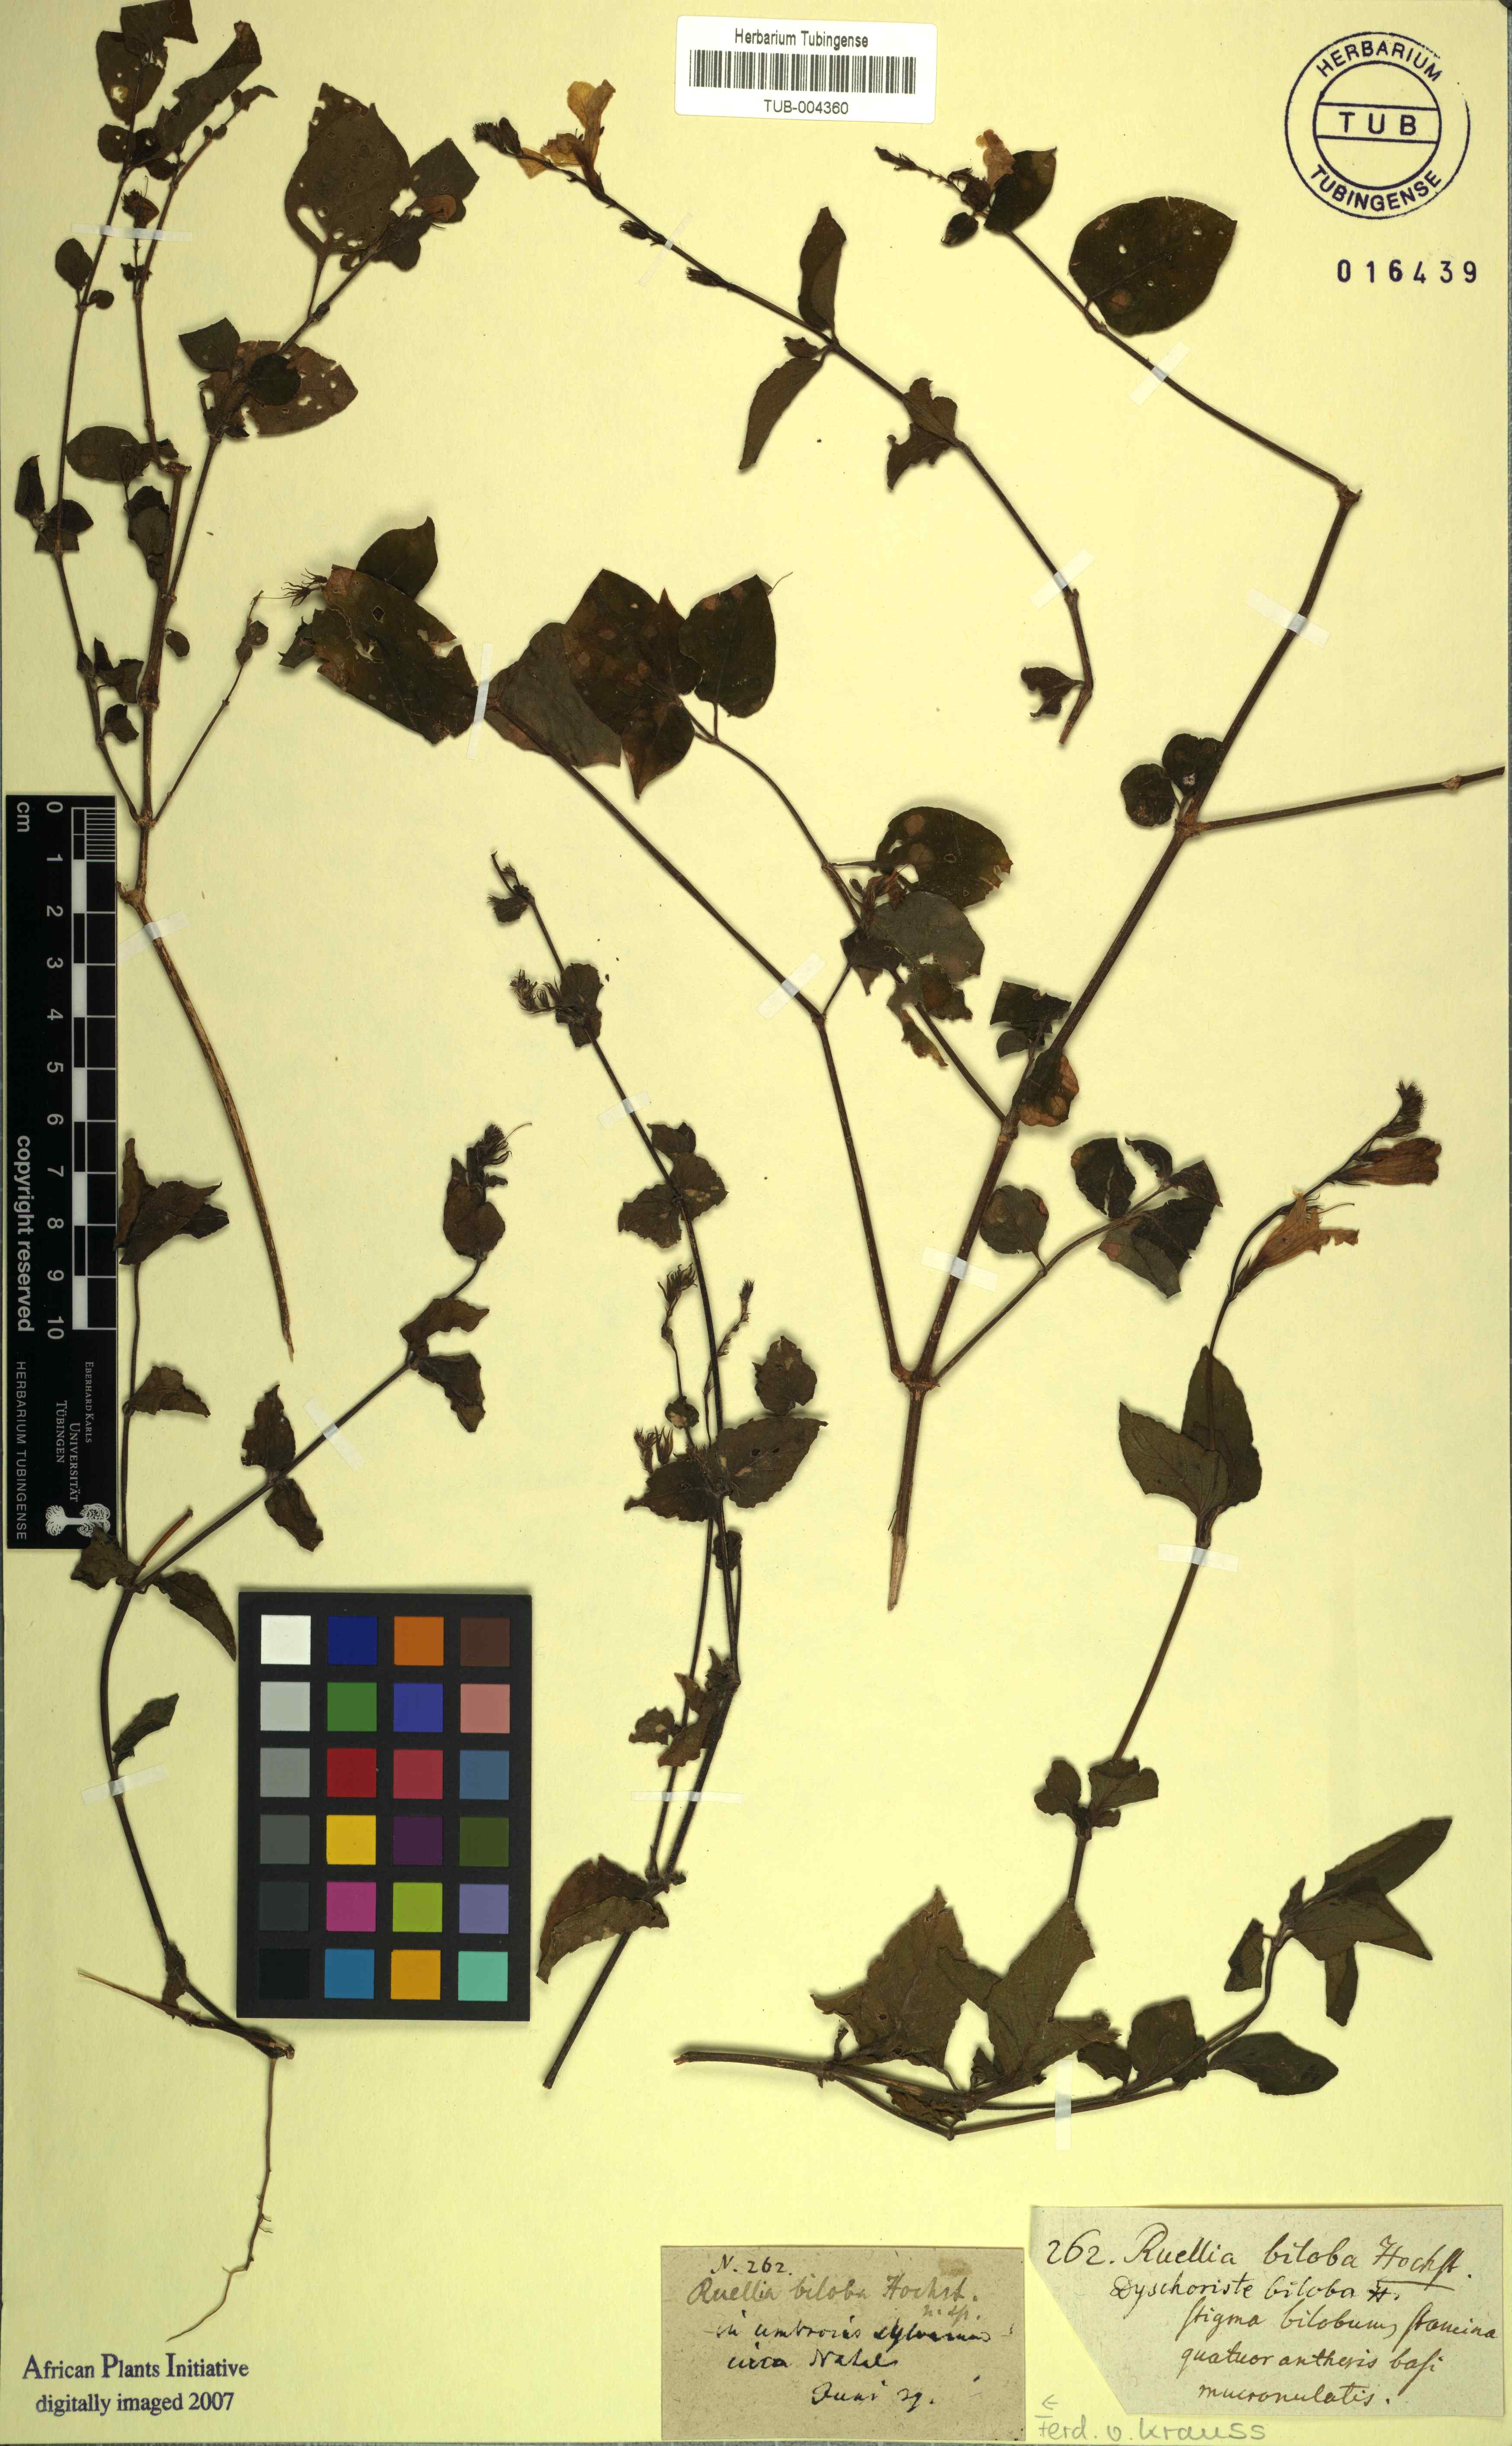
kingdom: Plantae
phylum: Tracheophyta
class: Magnoliopsida
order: Lamiales
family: Acanthaceae
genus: Asystasia
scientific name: Asystasia gangetica
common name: Chinese violet
